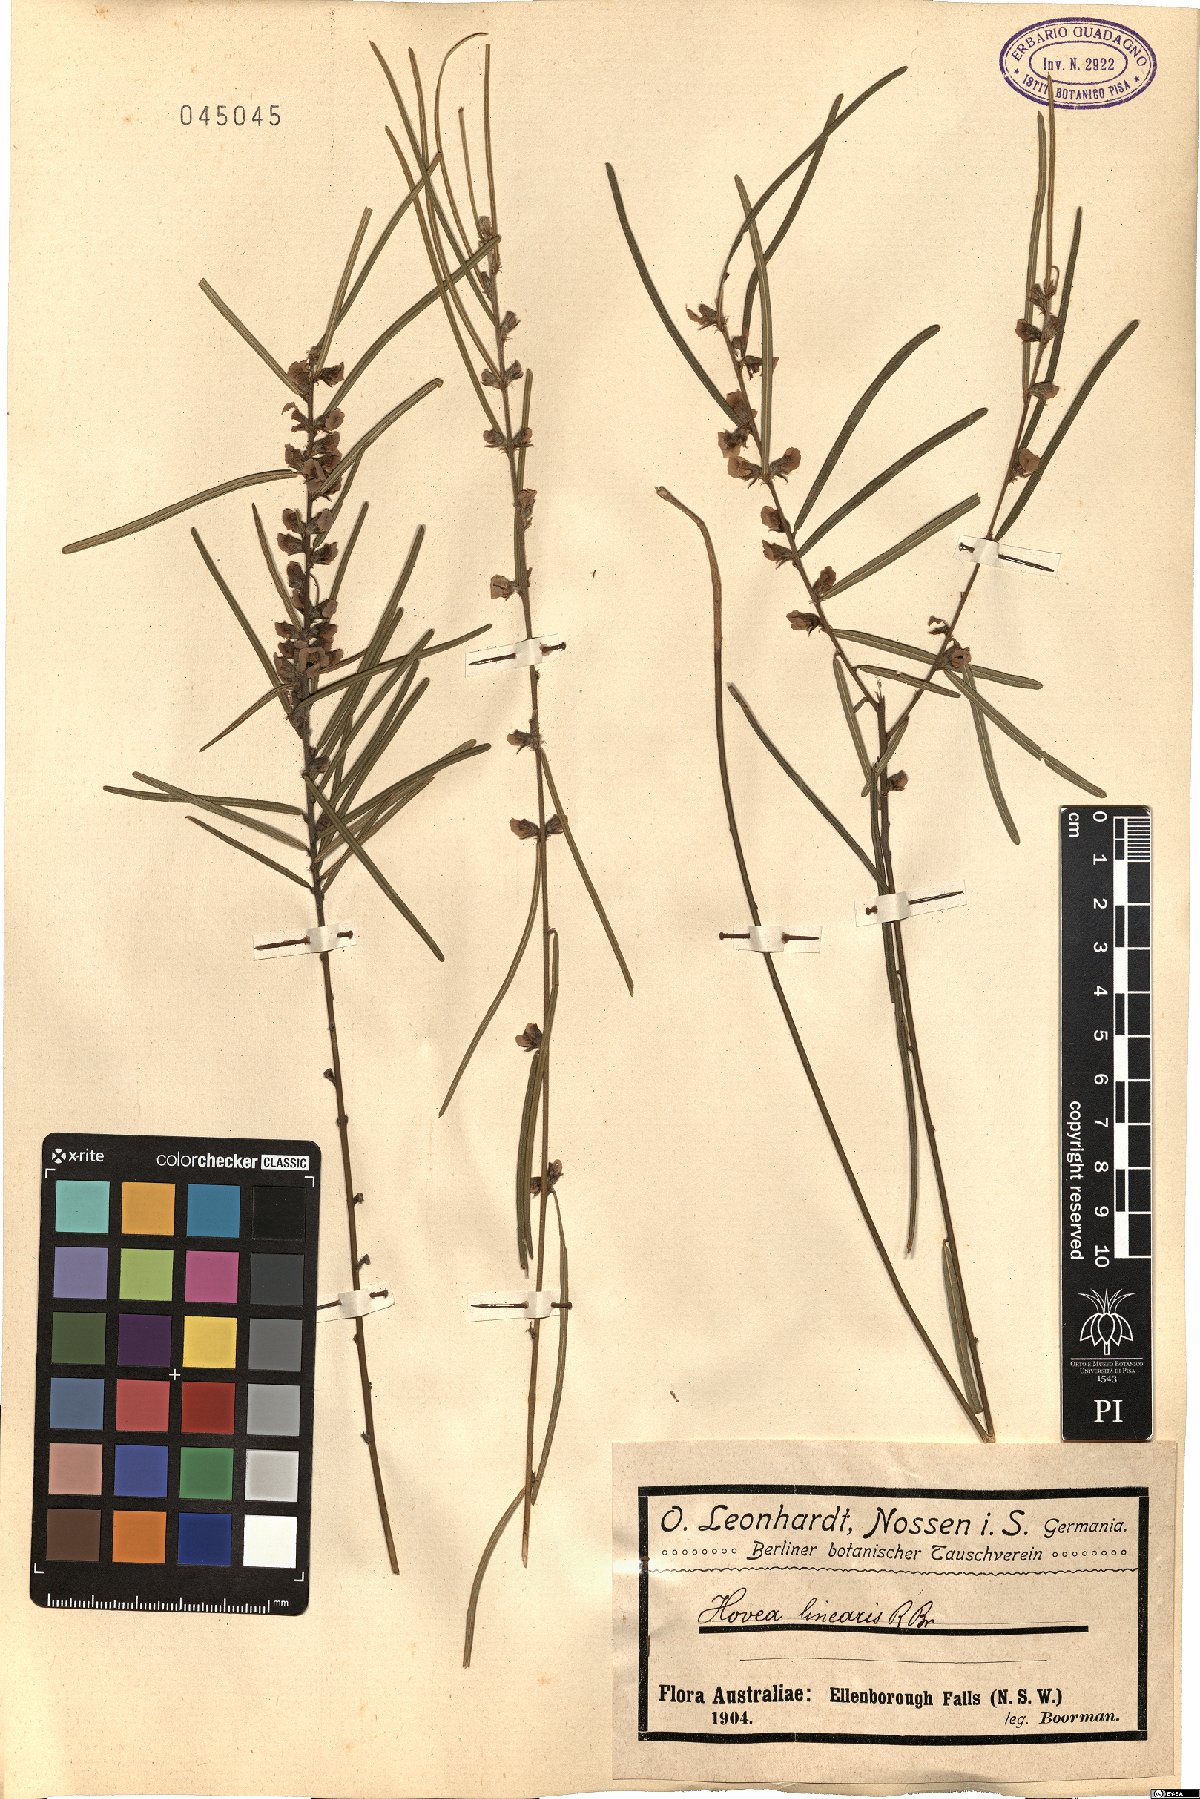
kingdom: Plantae
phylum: Tracheophyta
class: Magnoliopsida
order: Fabales
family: Fabaceae
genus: Hovea
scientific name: Hovea linearis
